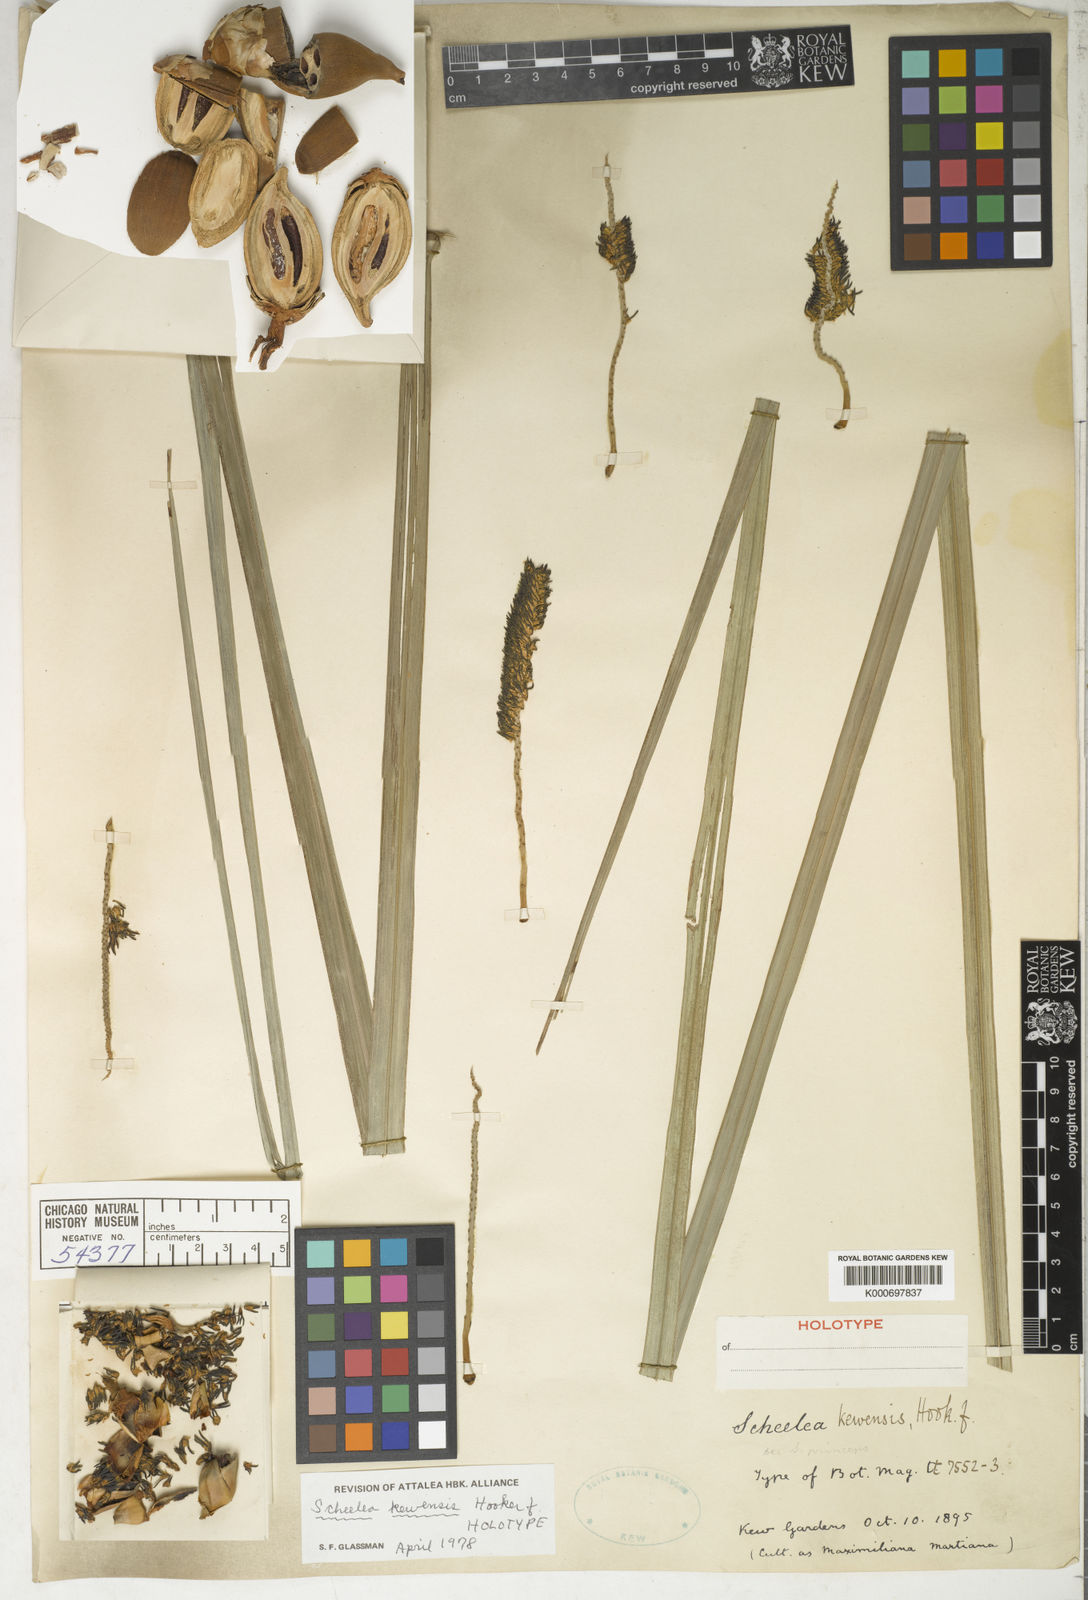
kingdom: Plantae
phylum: Tracheophyta
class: Liliopsida
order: Arecales
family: Arecaceae
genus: Attalea
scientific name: Attalea kewensis
